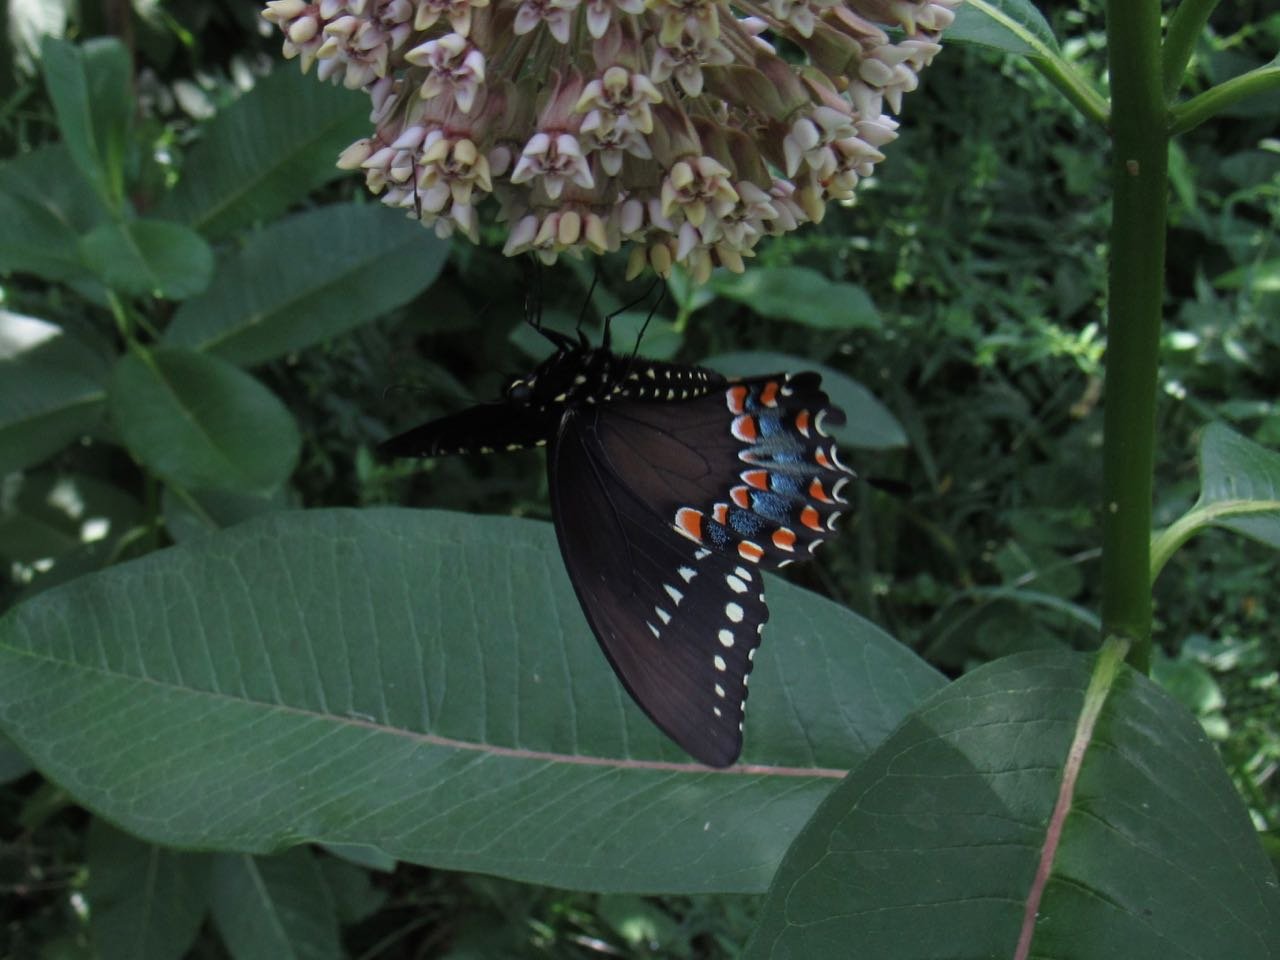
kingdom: Animalia
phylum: Arthropoda
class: Insecta
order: Lepidoptera
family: Papilionidae
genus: Pterourus
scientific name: Pterourus troilus
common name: Spicebush Swallowtail
